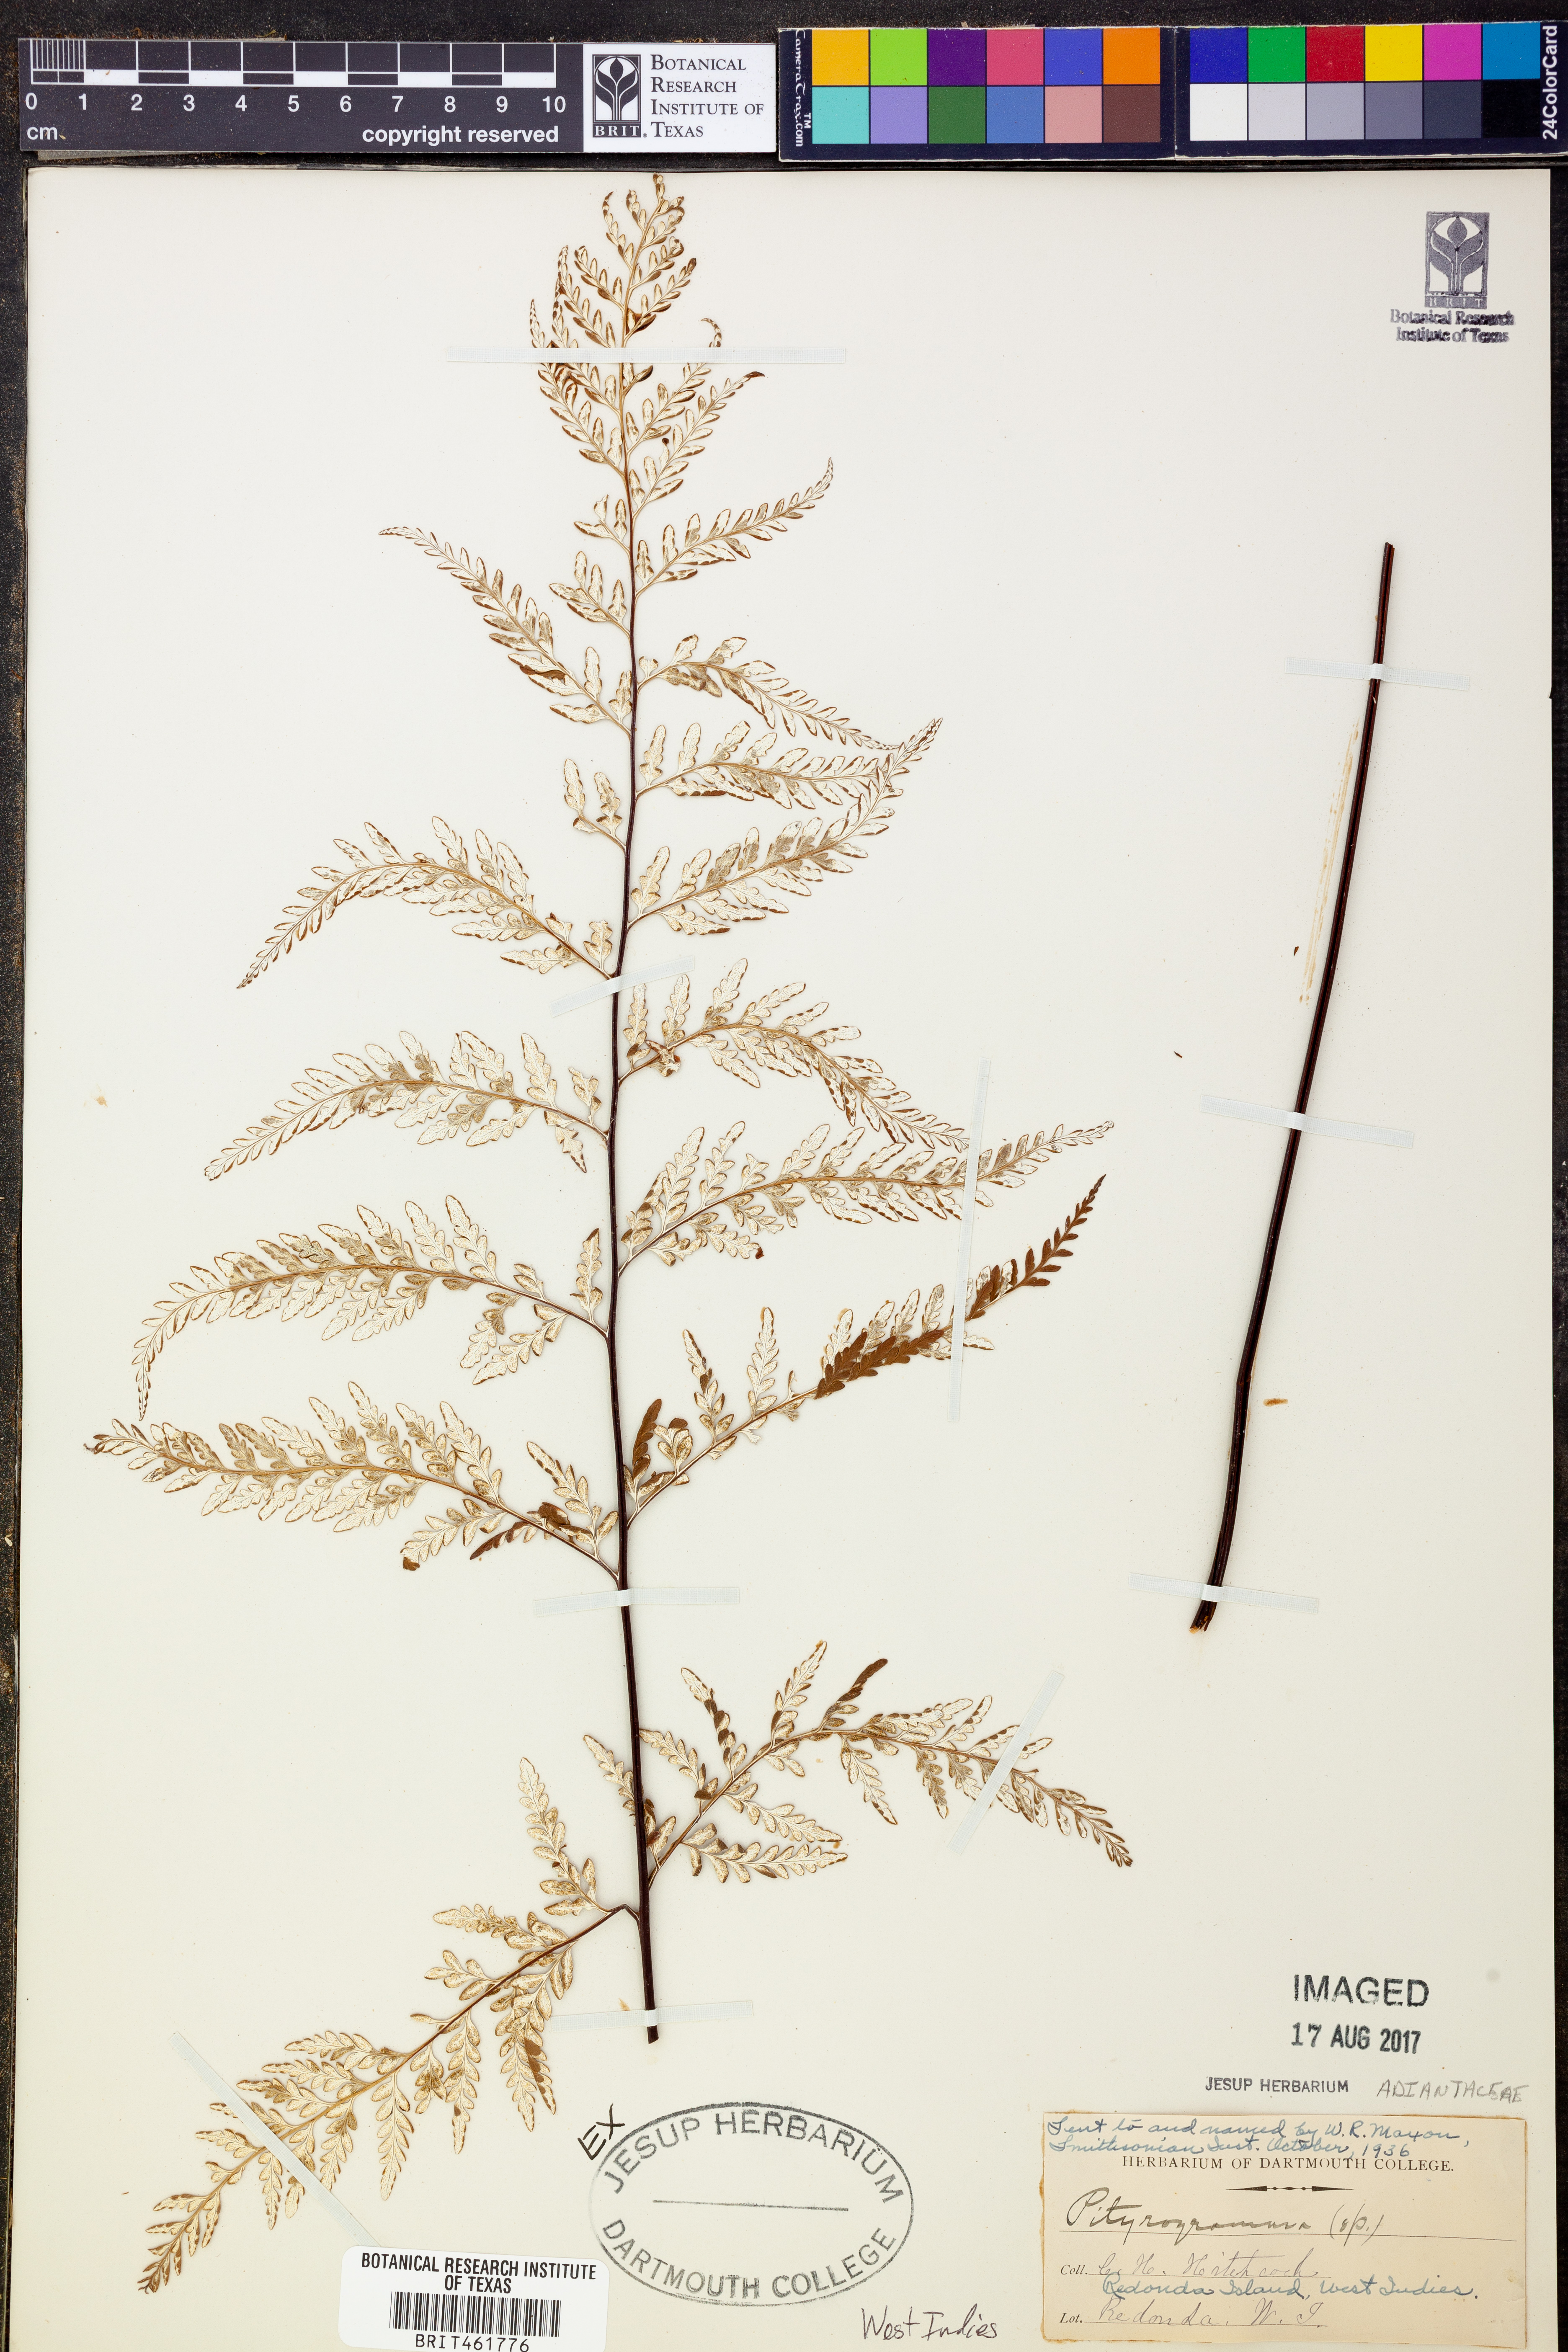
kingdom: Plantae
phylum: Tracheophyta
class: Polypodiopsida
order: Polypodiales
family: Pteridaceae
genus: Pityrogramma
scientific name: Pityrogramma
